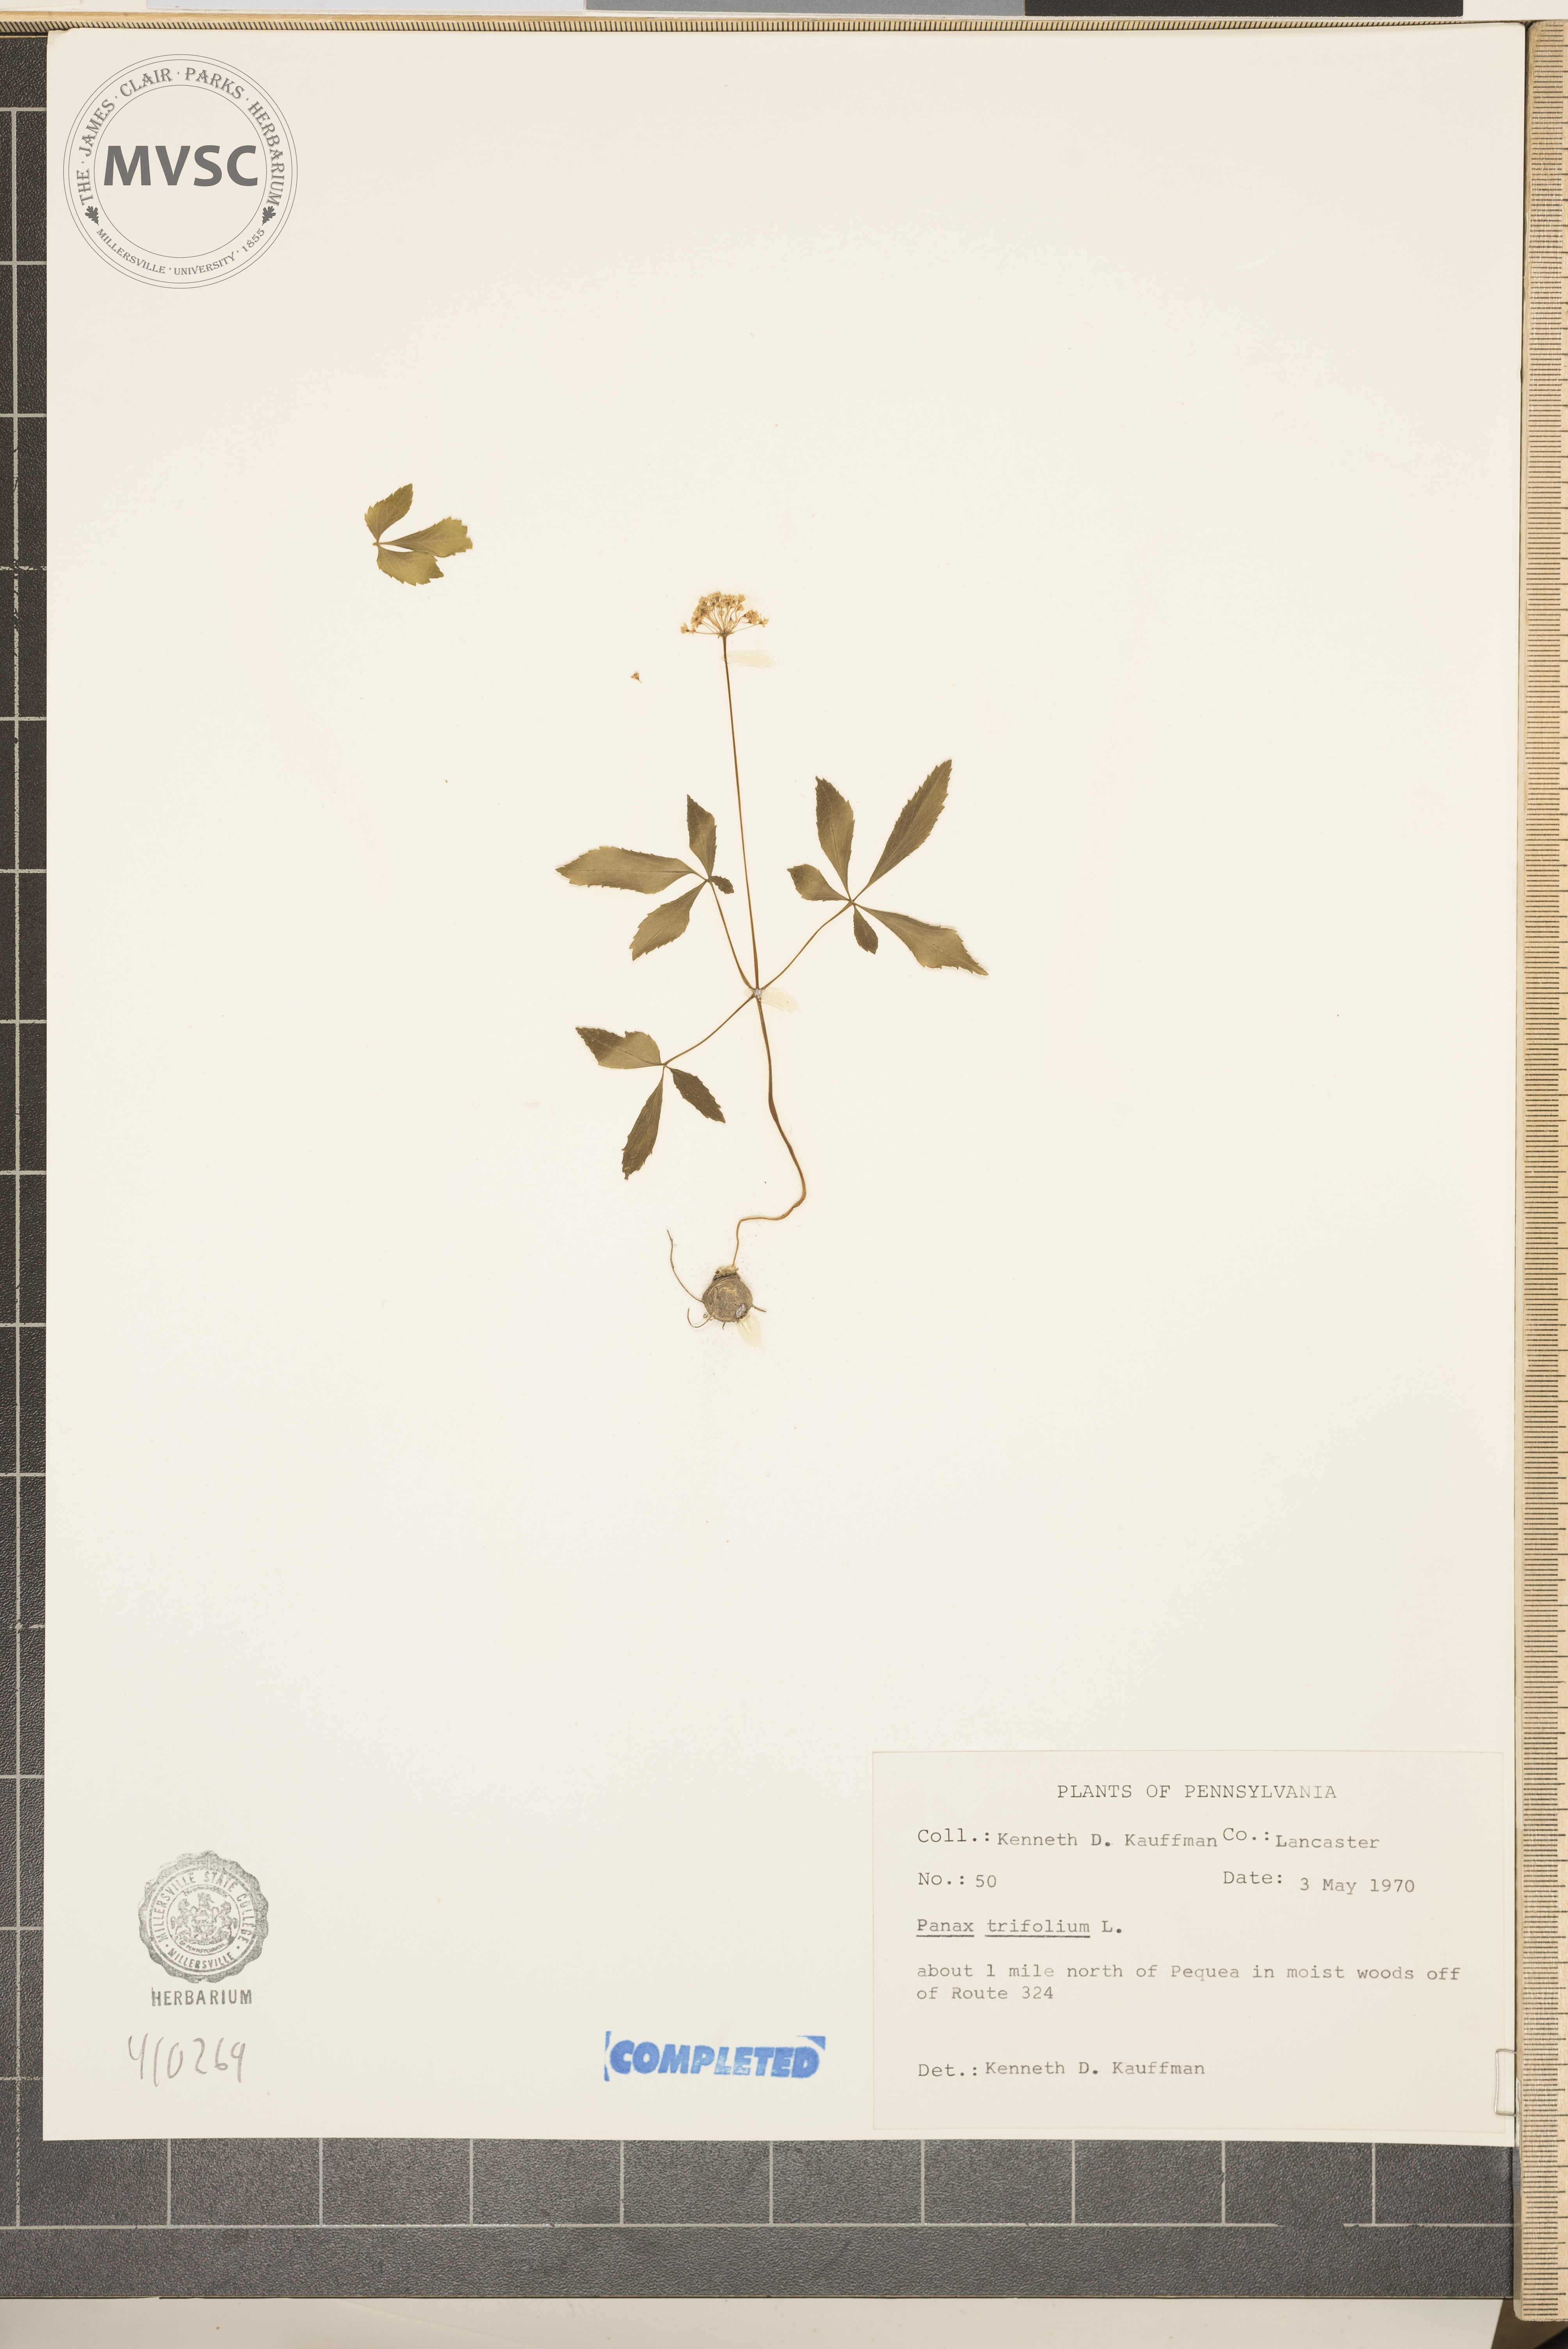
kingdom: Plantae
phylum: Tracheophyta
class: Magnoliopsida
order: Apiales
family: Araliaceae
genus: Panax
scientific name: Panax trifolius
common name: Dwarf ginseng
